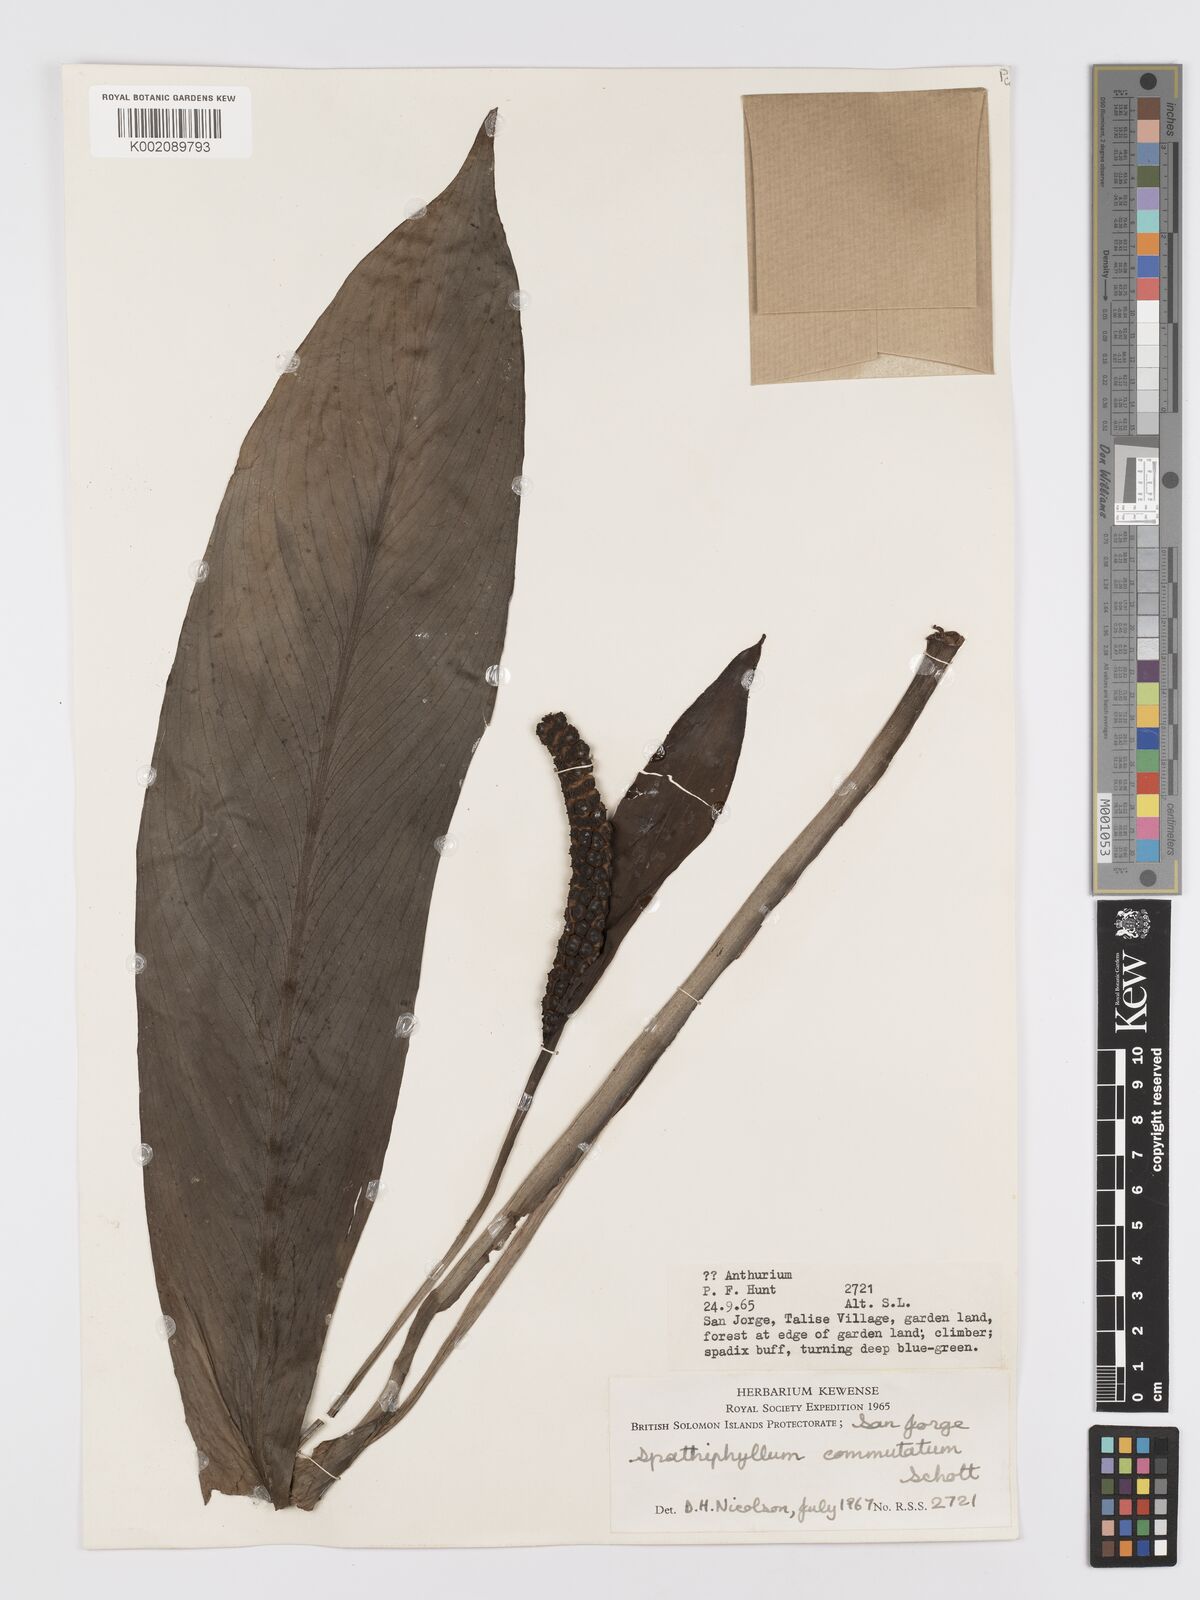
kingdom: Plantae
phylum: Tracheophyta
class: Liliopsida
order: Alismatales
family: Araceae
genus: Spathiphyllum
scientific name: Spathiphyllum commutatum
